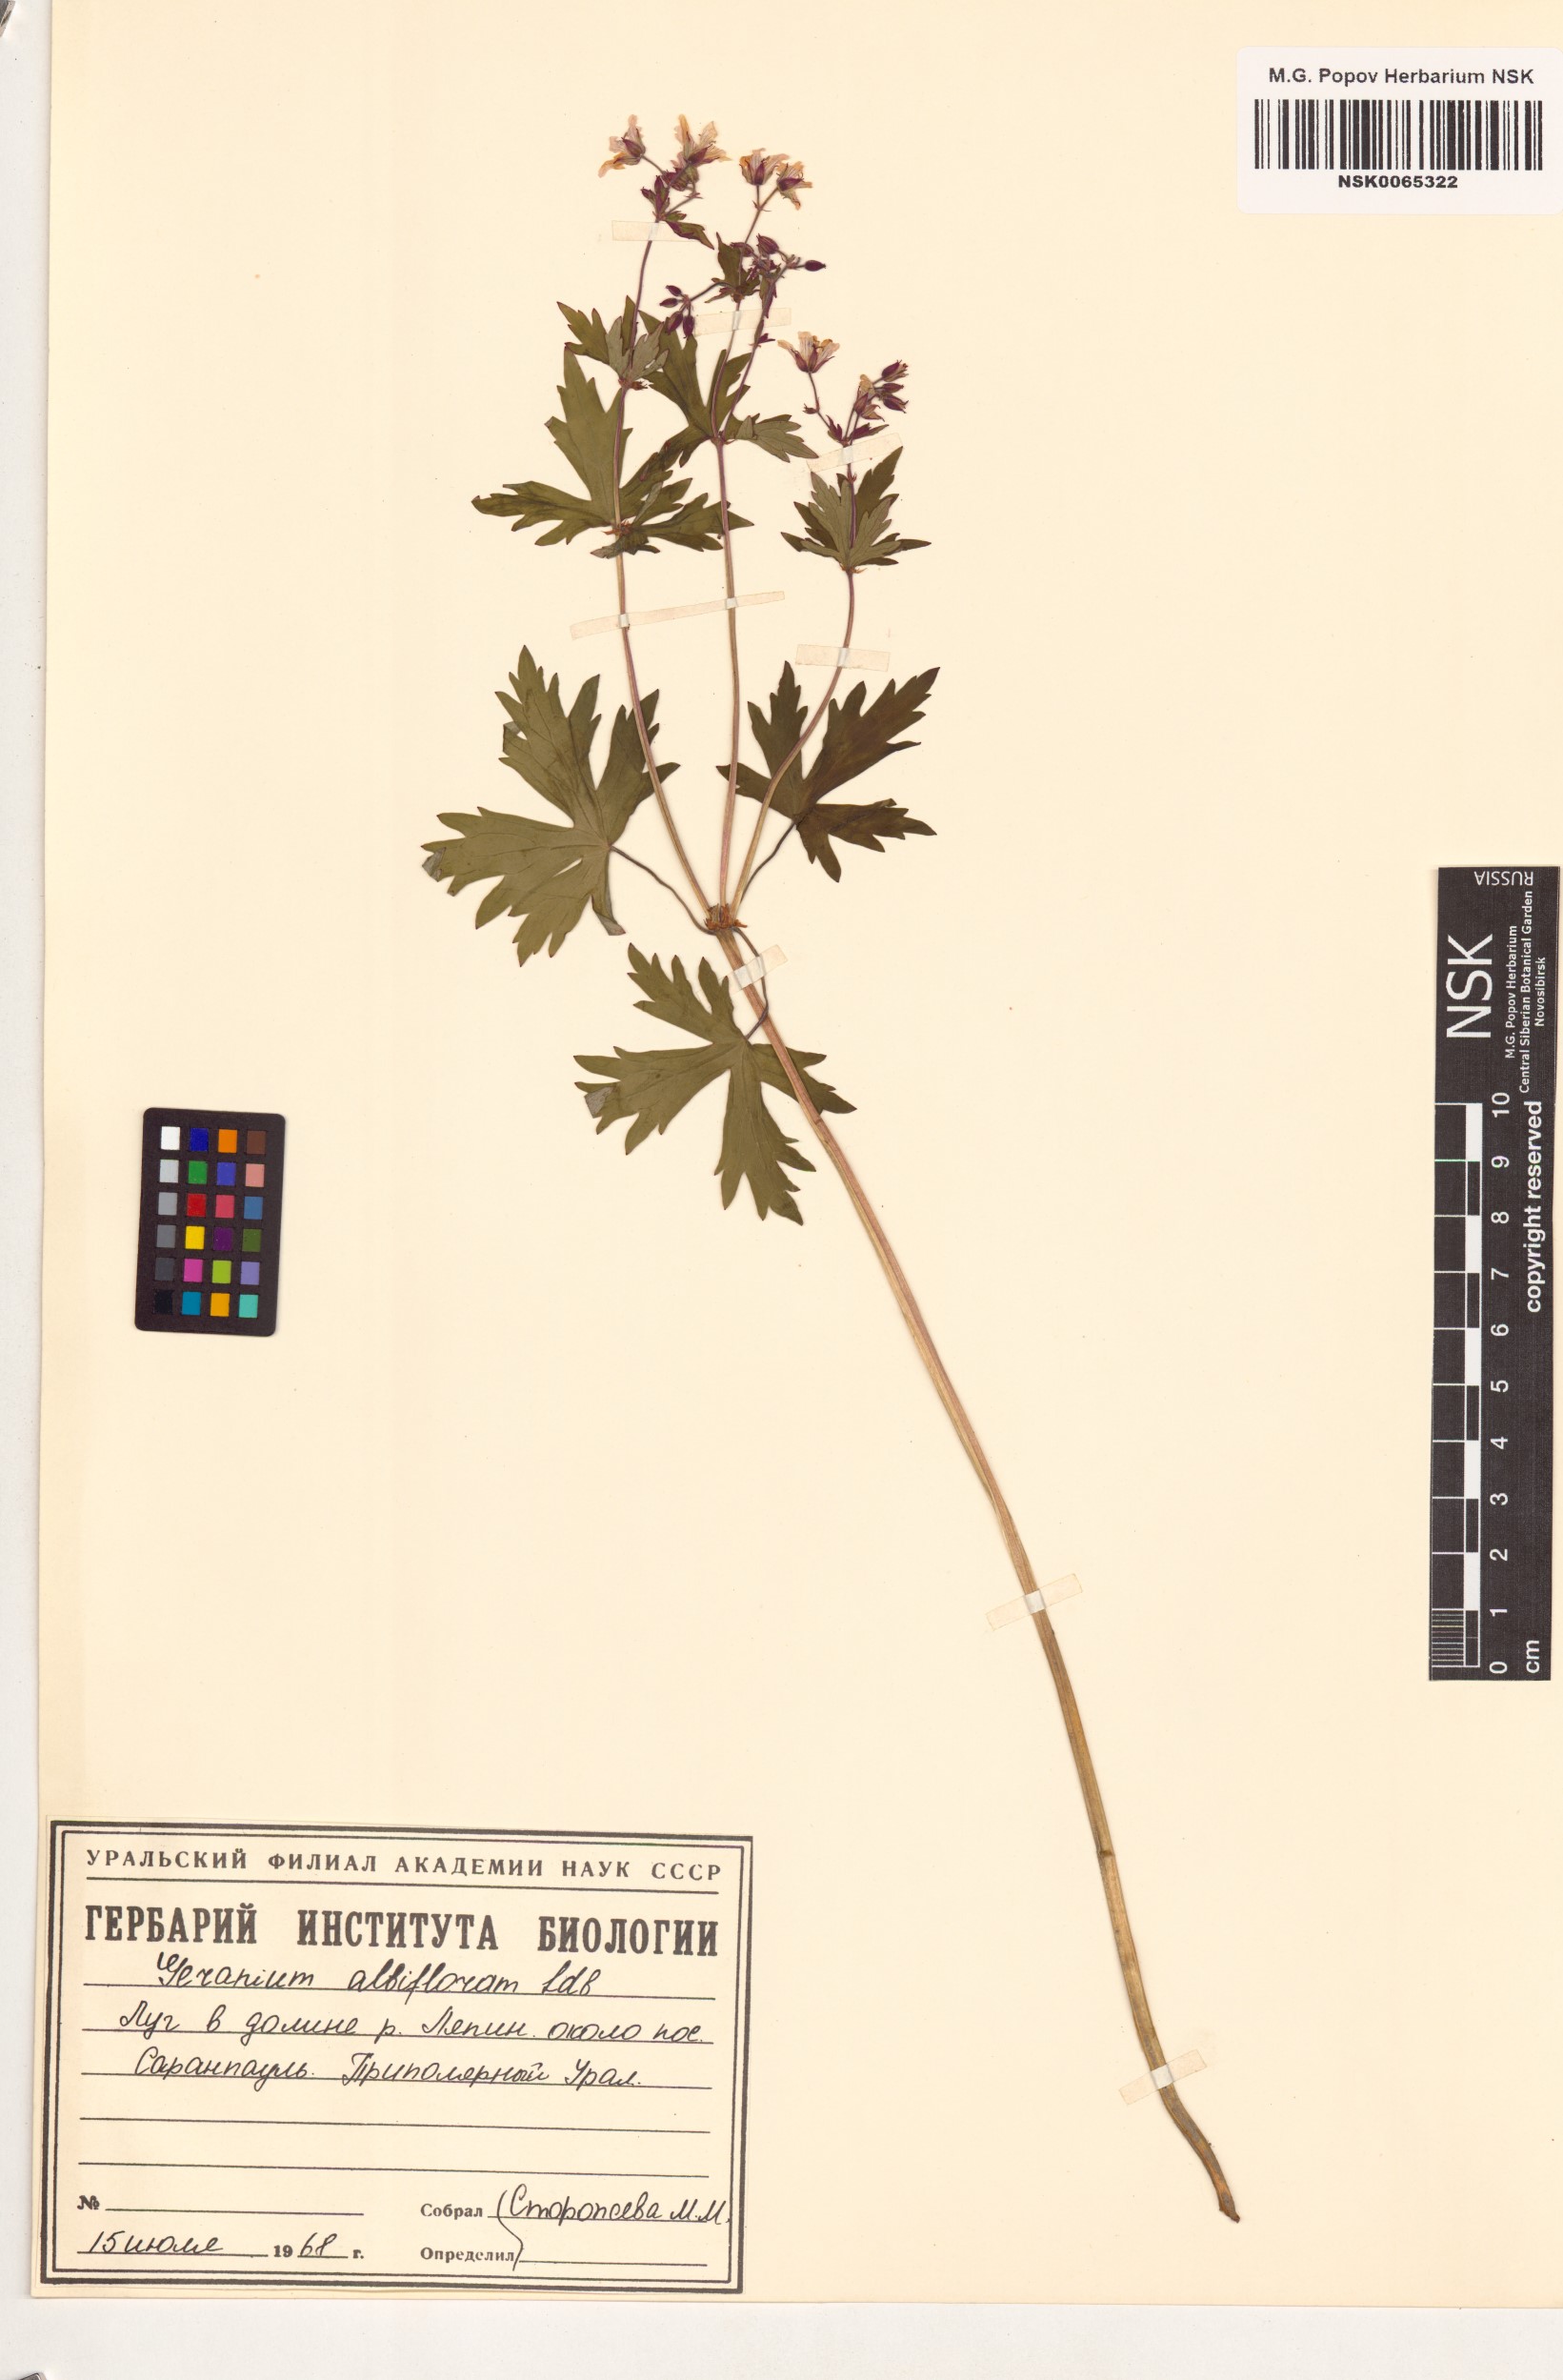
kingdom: Plantae
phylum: Tracheophyta
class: Magnoliopsida
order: Geraniales
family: Geraniaceae
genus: Geranium
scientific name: Geranium albiflorum
